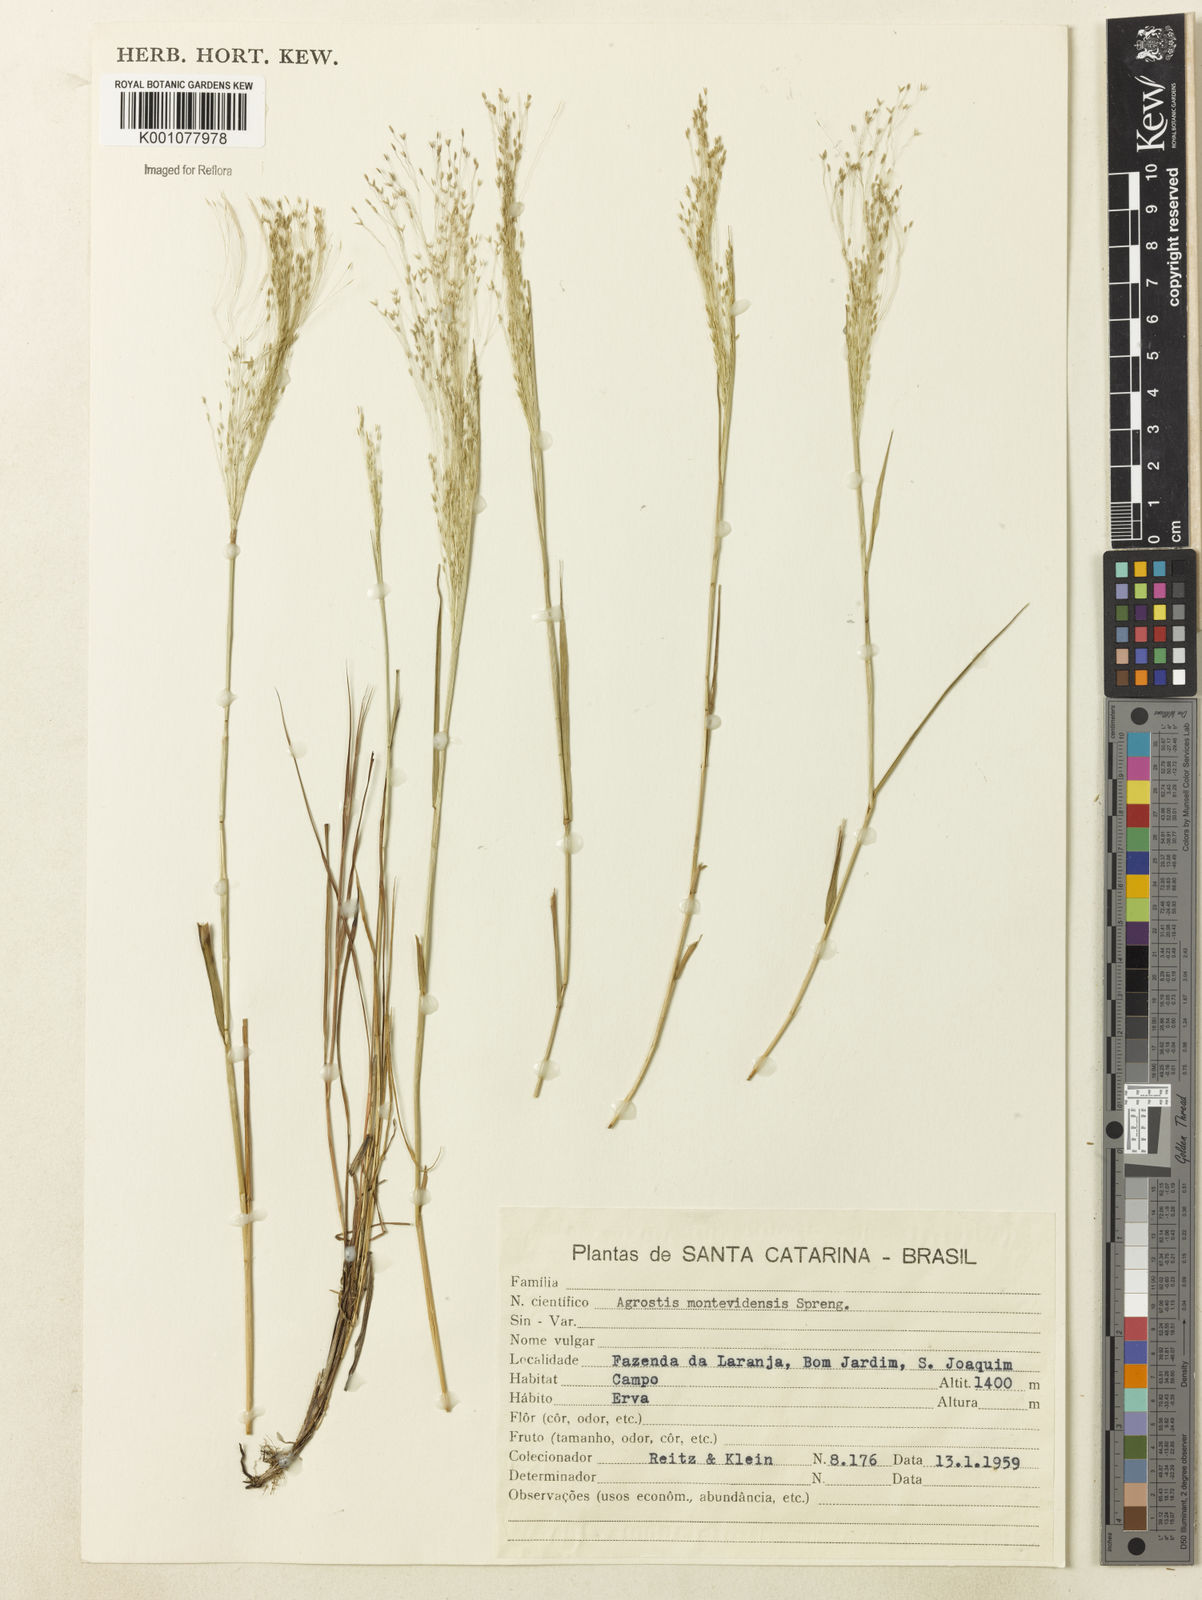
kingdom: Plantae
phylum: Tracheophyta
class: Liliopsida
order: Poales
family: Poaceae
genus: Agrostis
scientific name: Agrostis montevidensis
